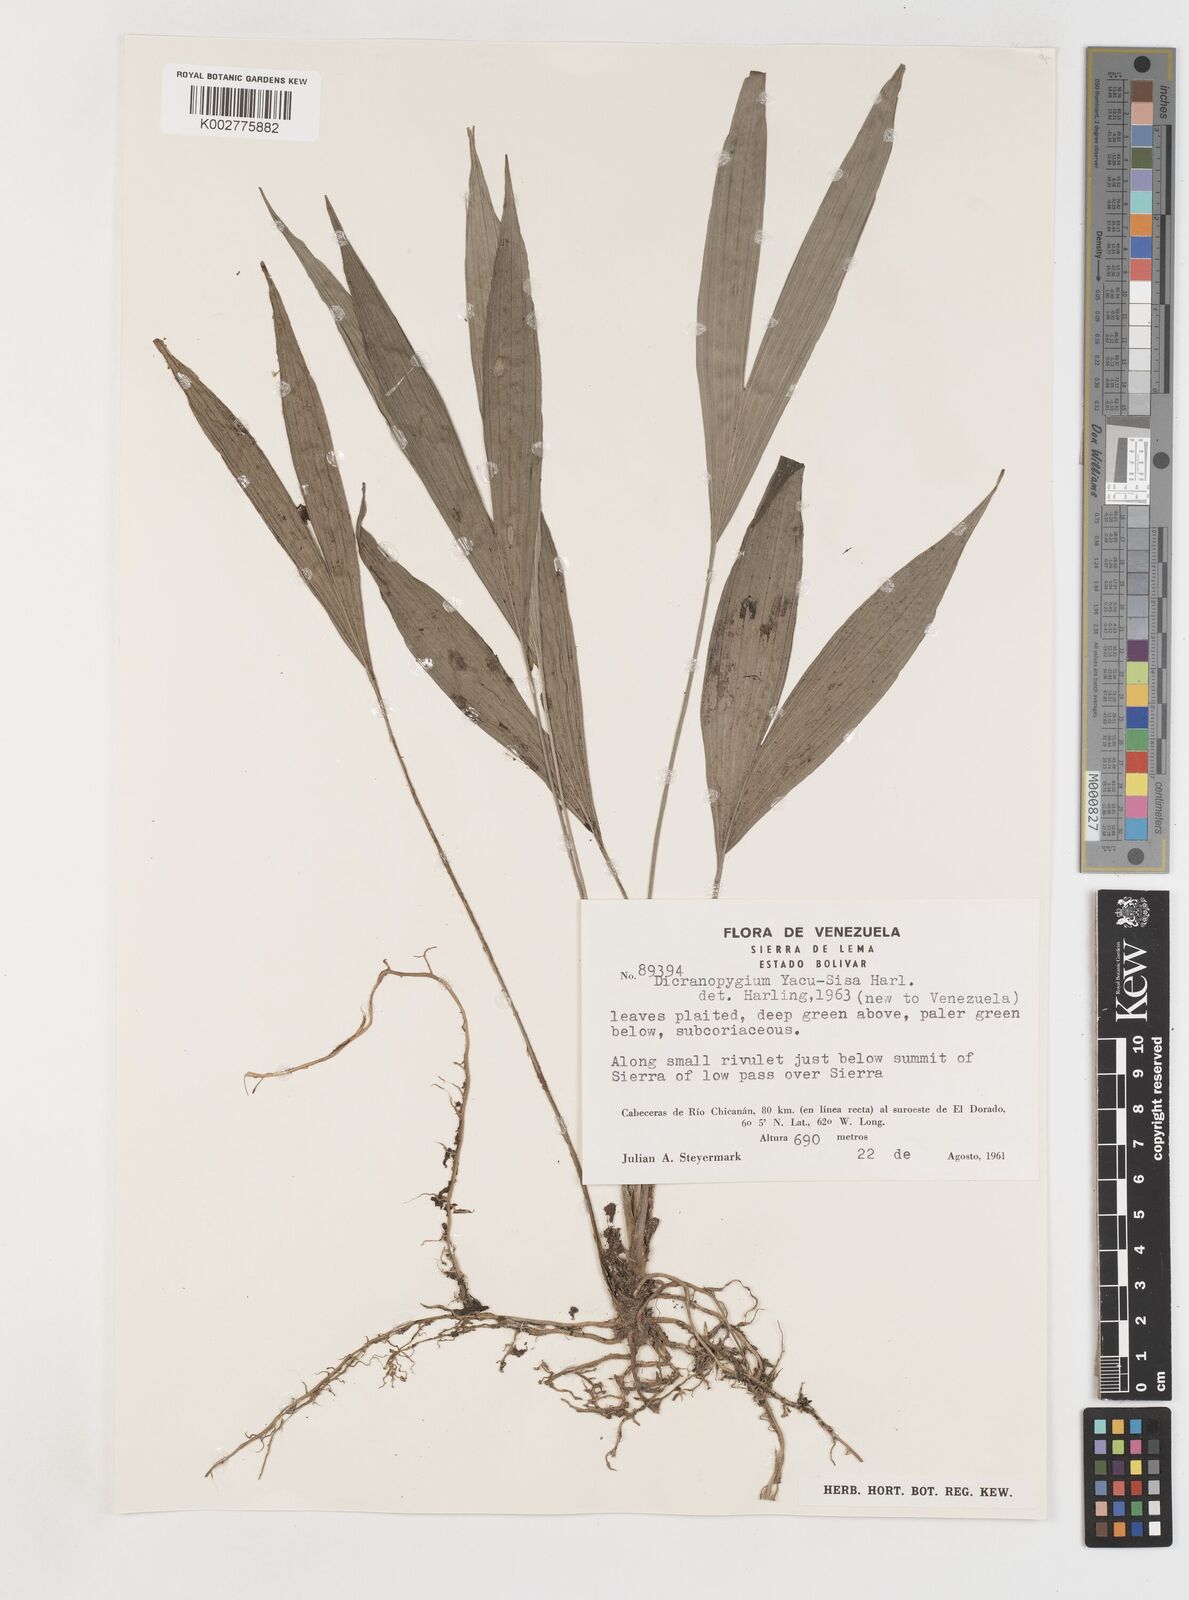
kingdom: Plantae
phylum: Tracheophyta
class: Liliopsida
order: Pandanales
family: Cyclanthaceae
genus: Dicranopygium
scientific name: Dicranopygium yacu-sisa
